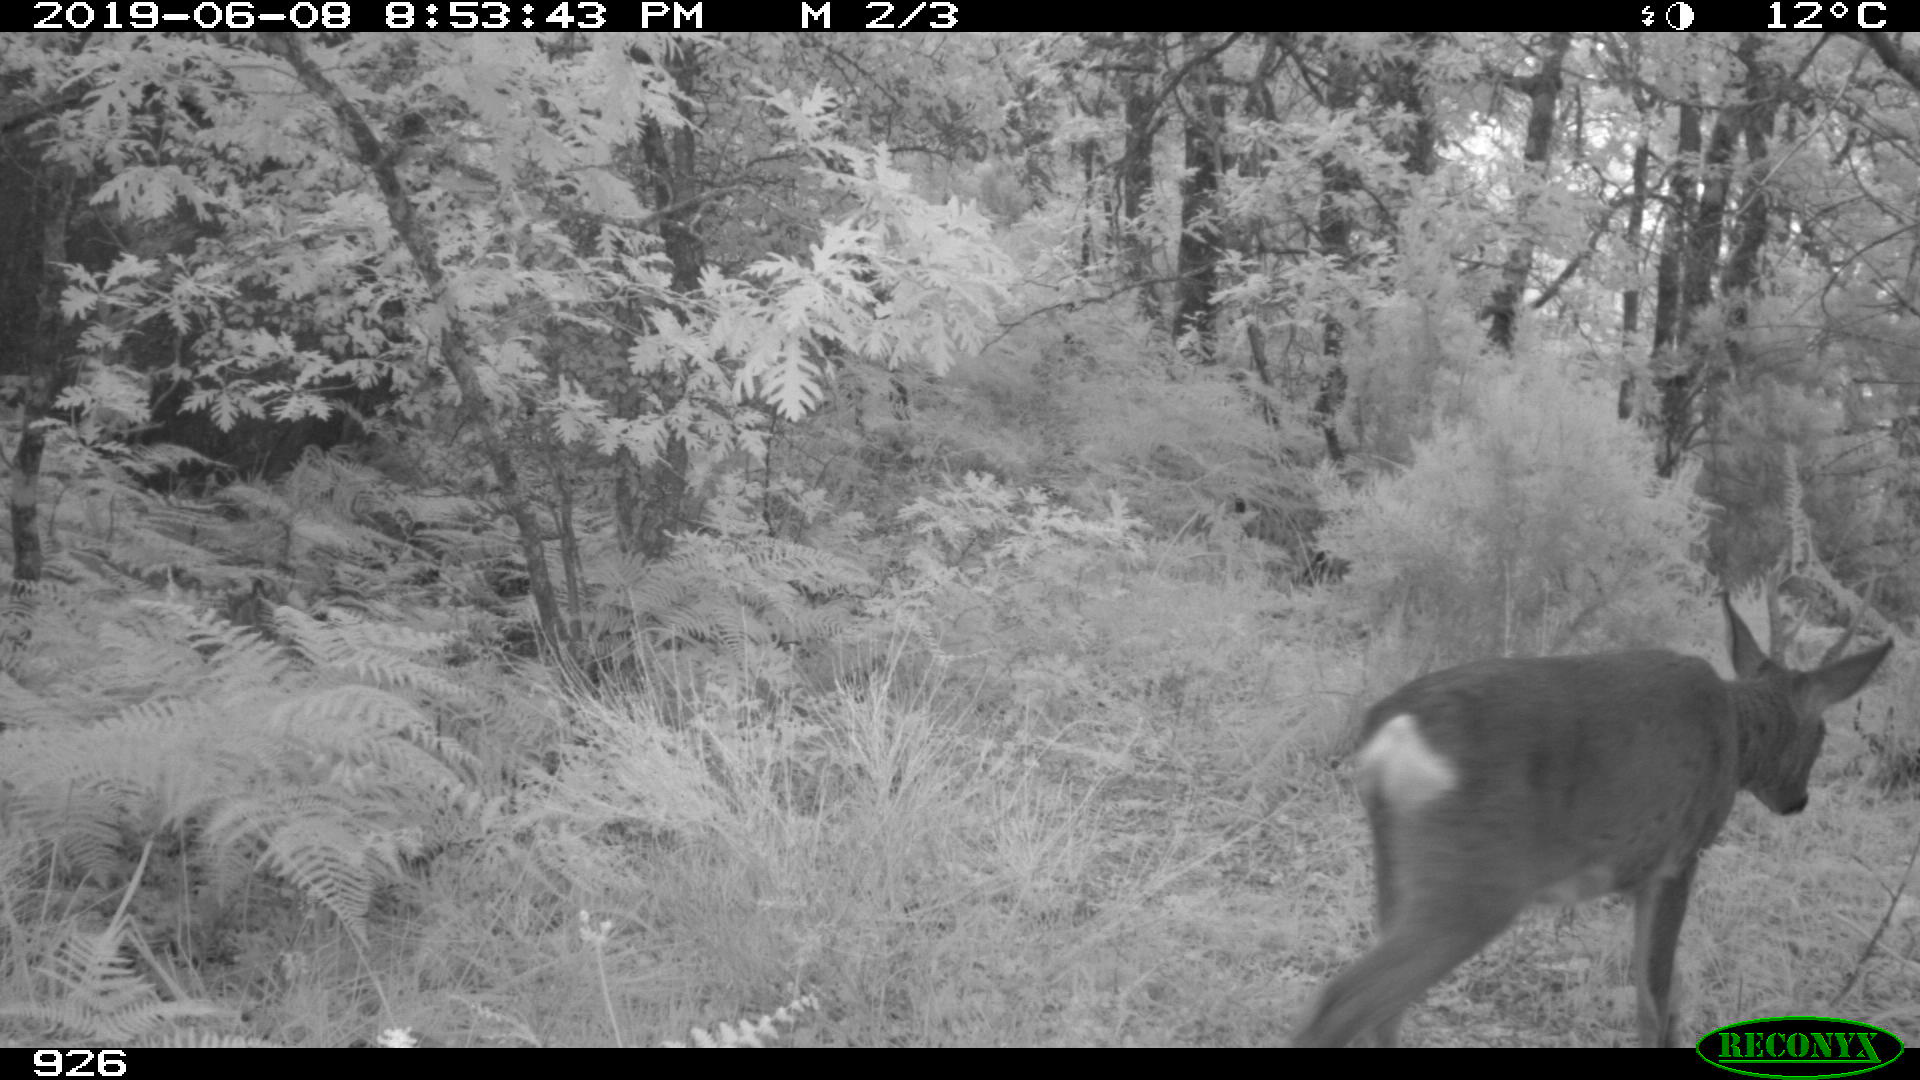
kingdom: Animalia
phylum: Chordata
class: Mammalia
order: Artiodactyla
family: Cervidae
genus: Capreolus
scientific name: Capreolus capreolus
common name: Western roe deer
